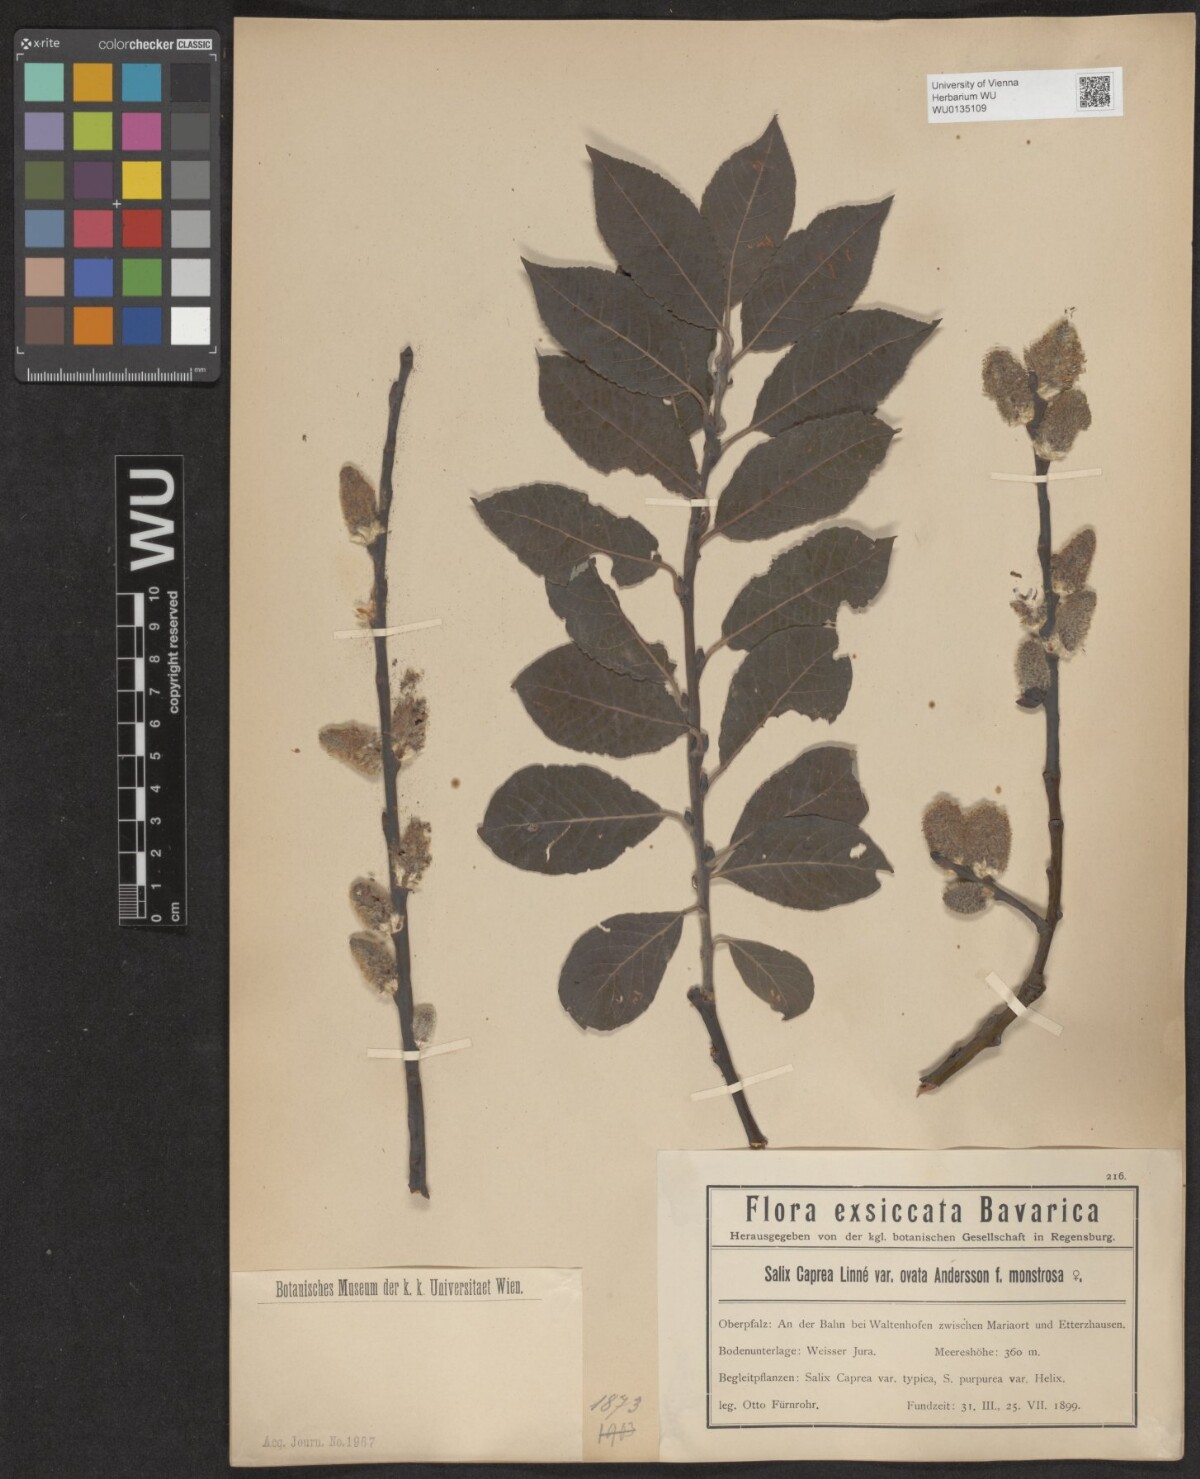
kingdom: Plantae
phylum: Tracheophyta
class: Magnoliopsida
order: Malpighiales
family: Salicaceae
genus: Salix
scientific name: Salix caprea
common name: Goat willow
